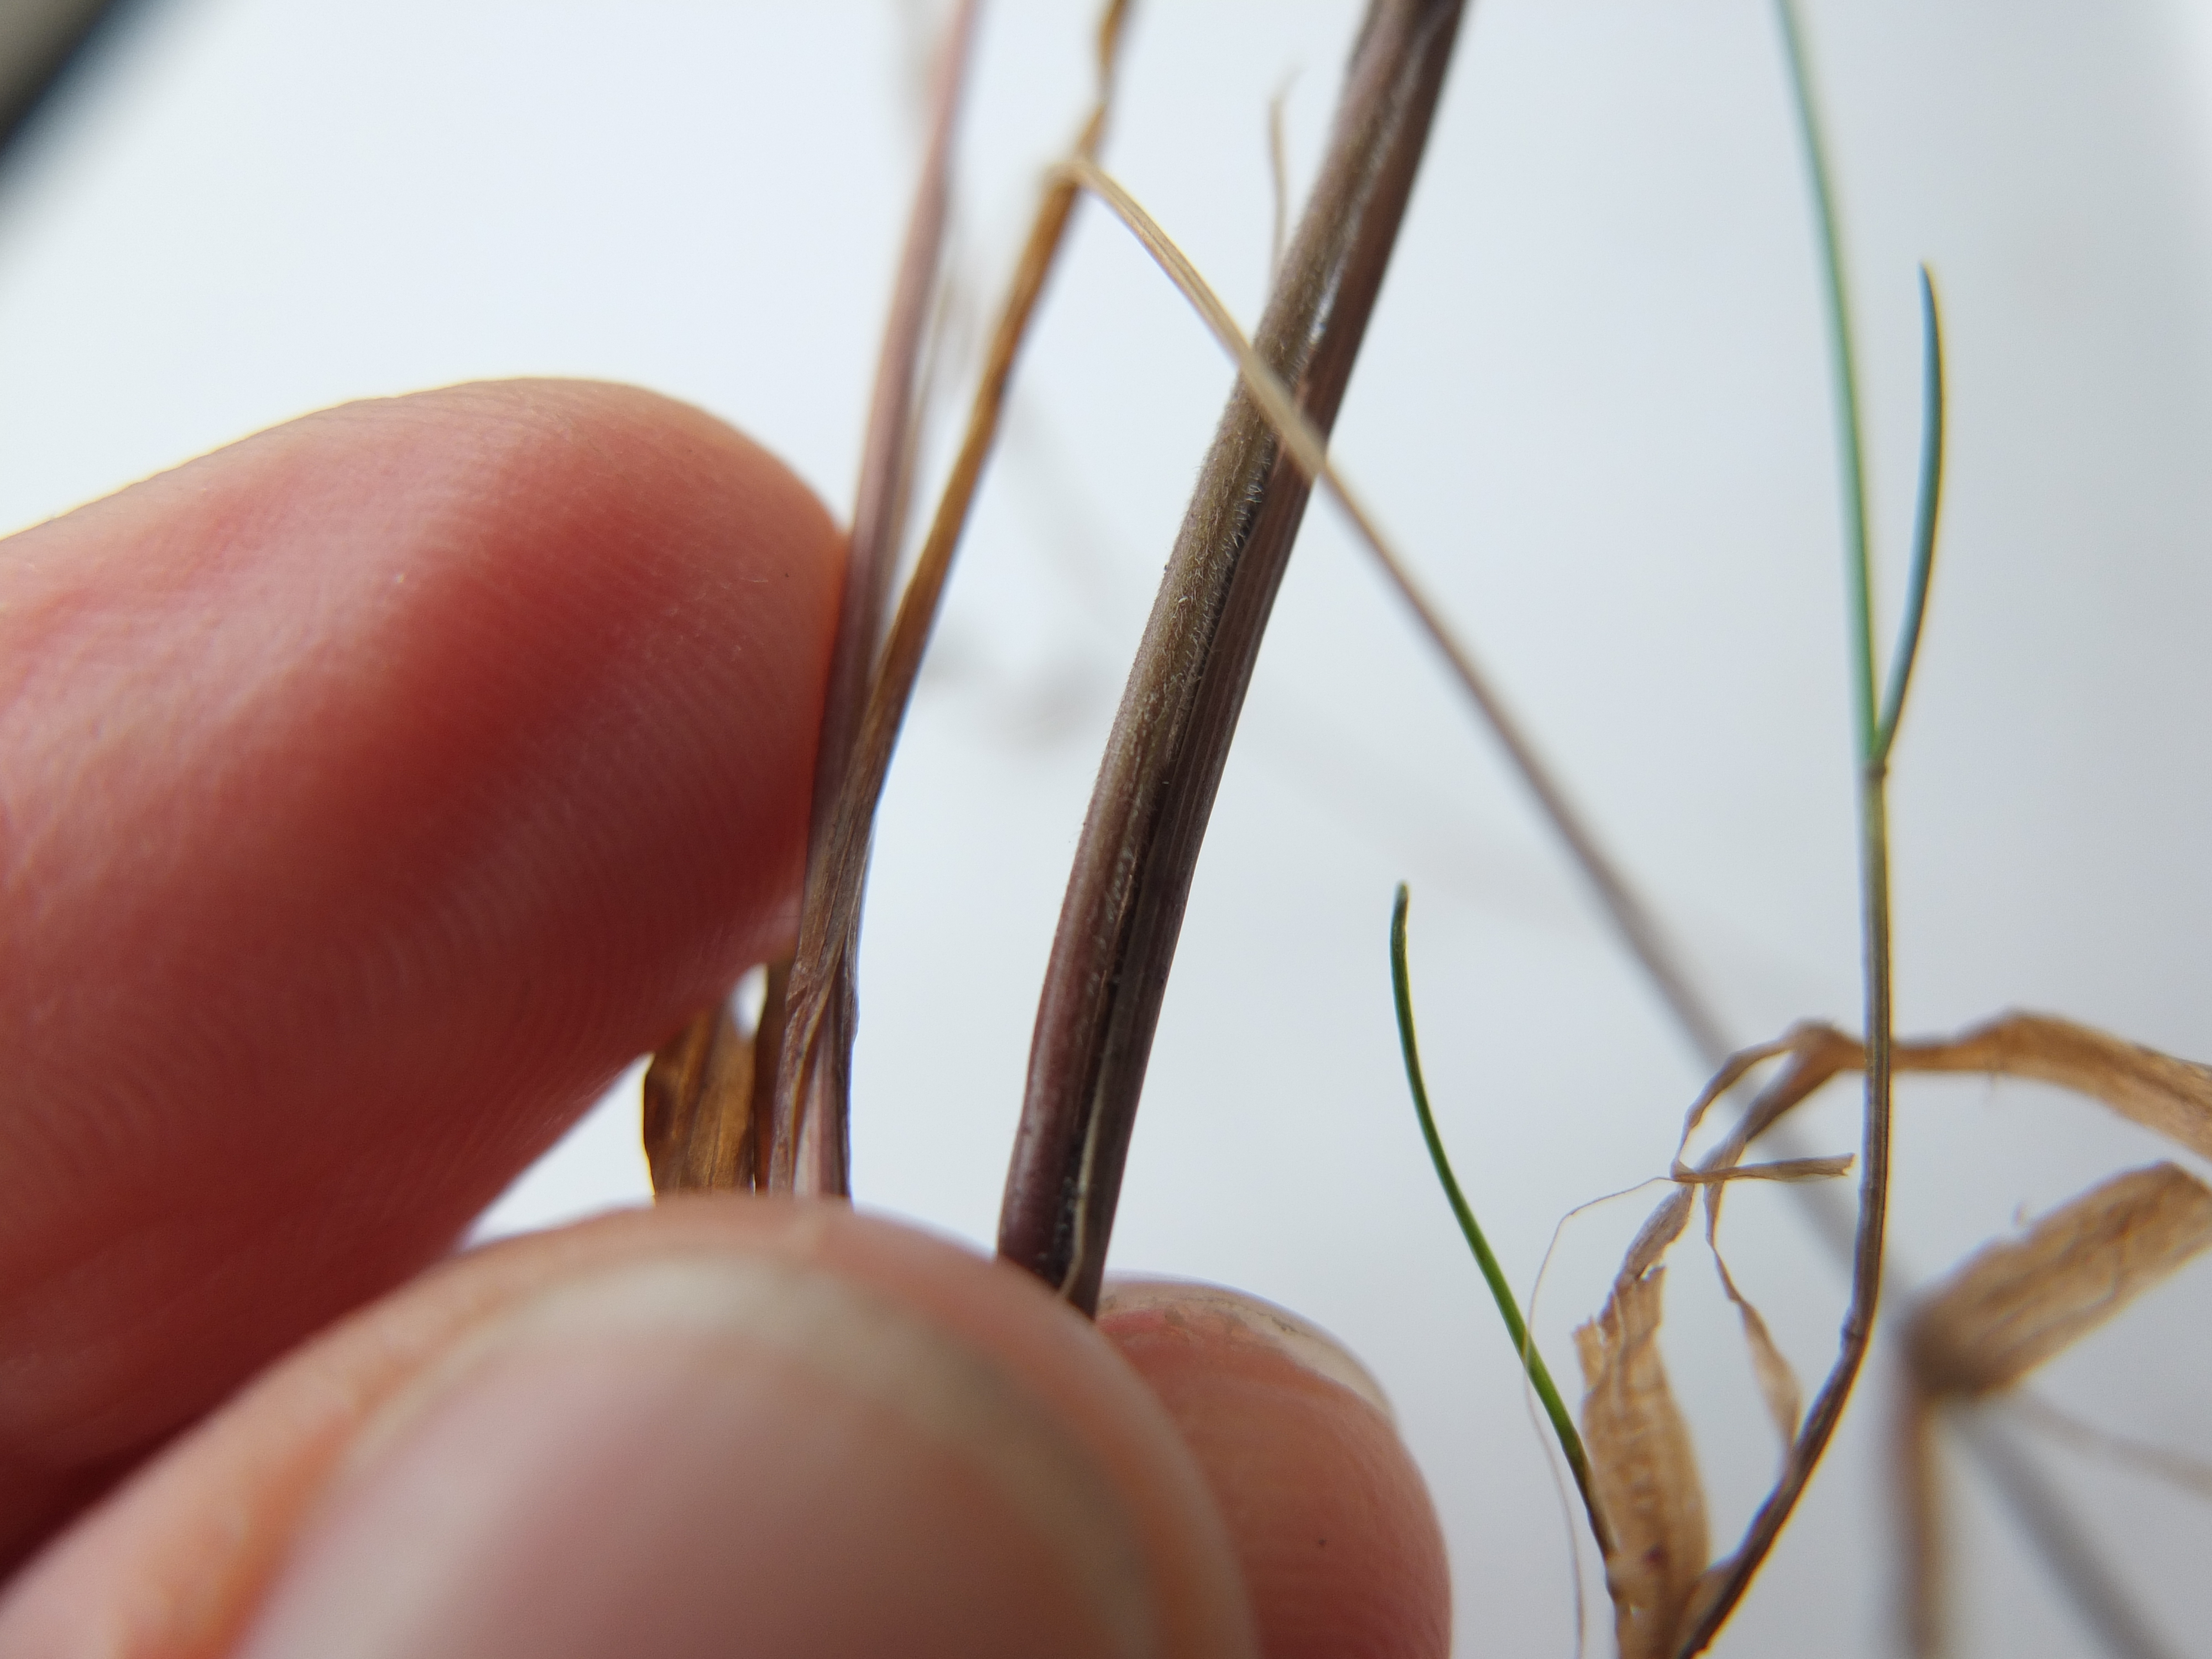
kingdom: Plantae
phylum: Tracheophyta
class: Liliopsida
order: Poales
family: Poaceae
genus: Festuca
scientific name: Festuca rubra
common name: Rød svingel
